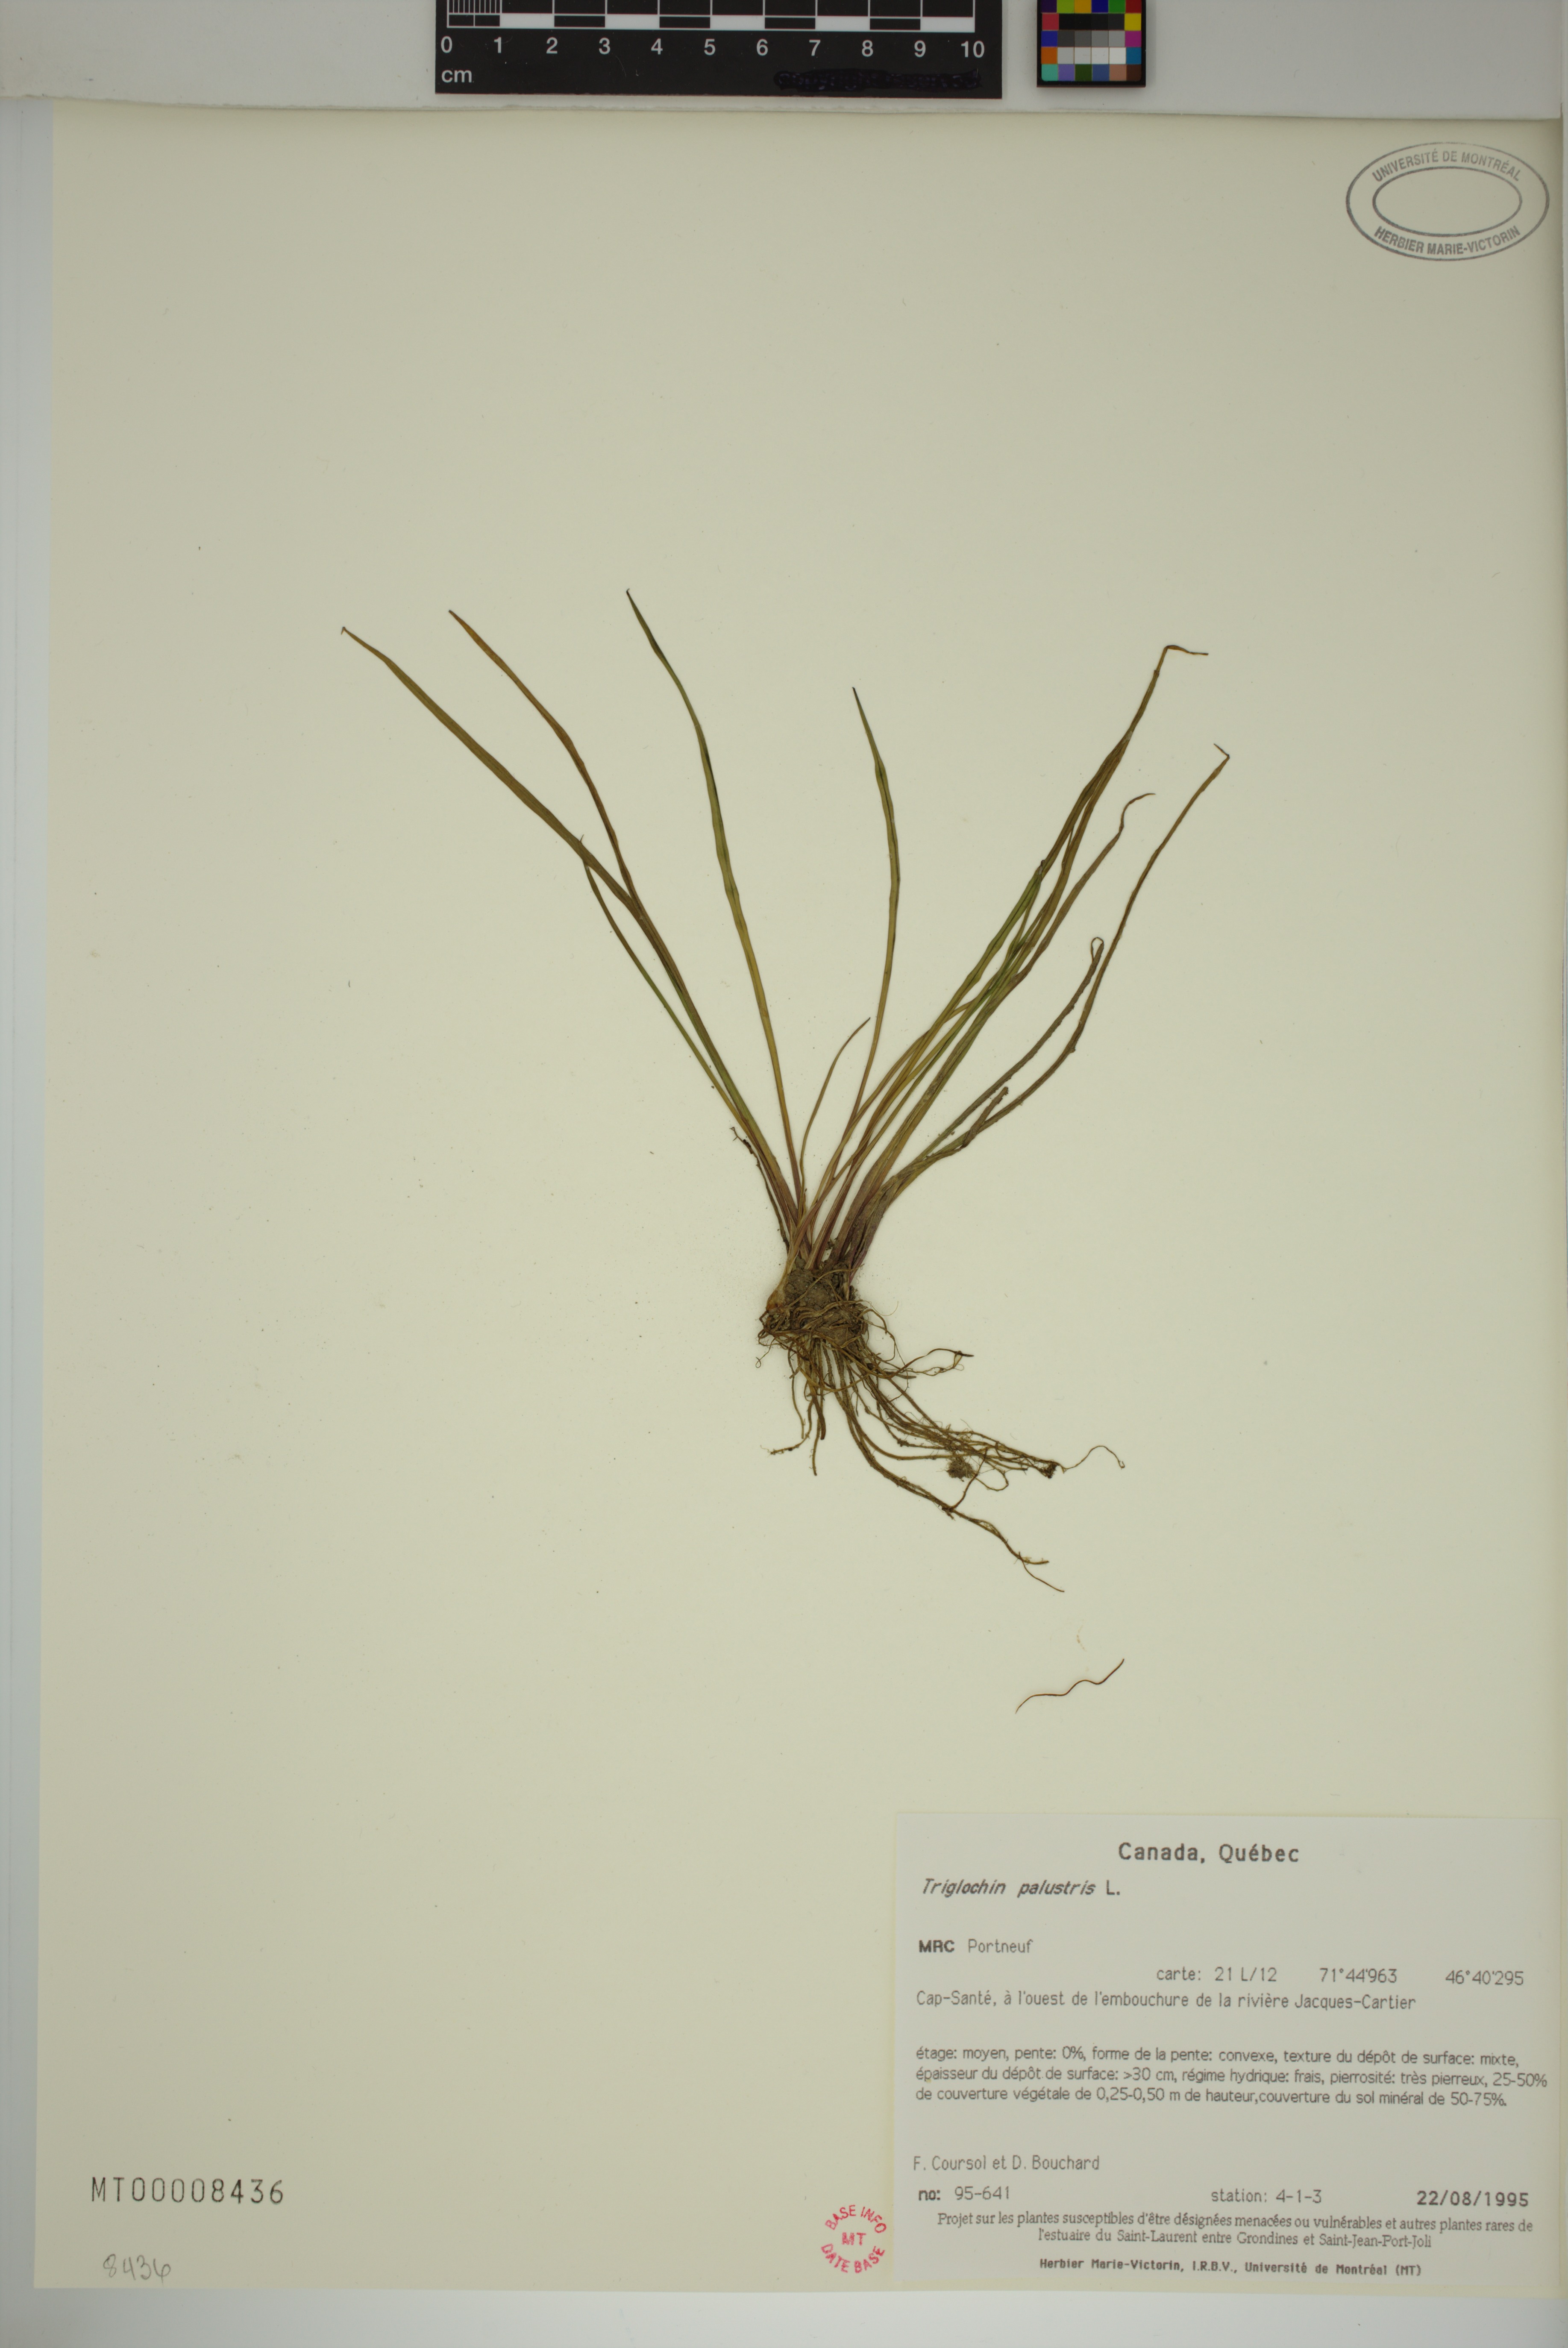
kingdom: Plantae
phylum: Tracheophyta
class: Liliopsida
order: Alismatales
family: Juncaginaceae
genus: Triglochin
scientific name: Triglochin palustris
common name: Marsh arrowgrass
